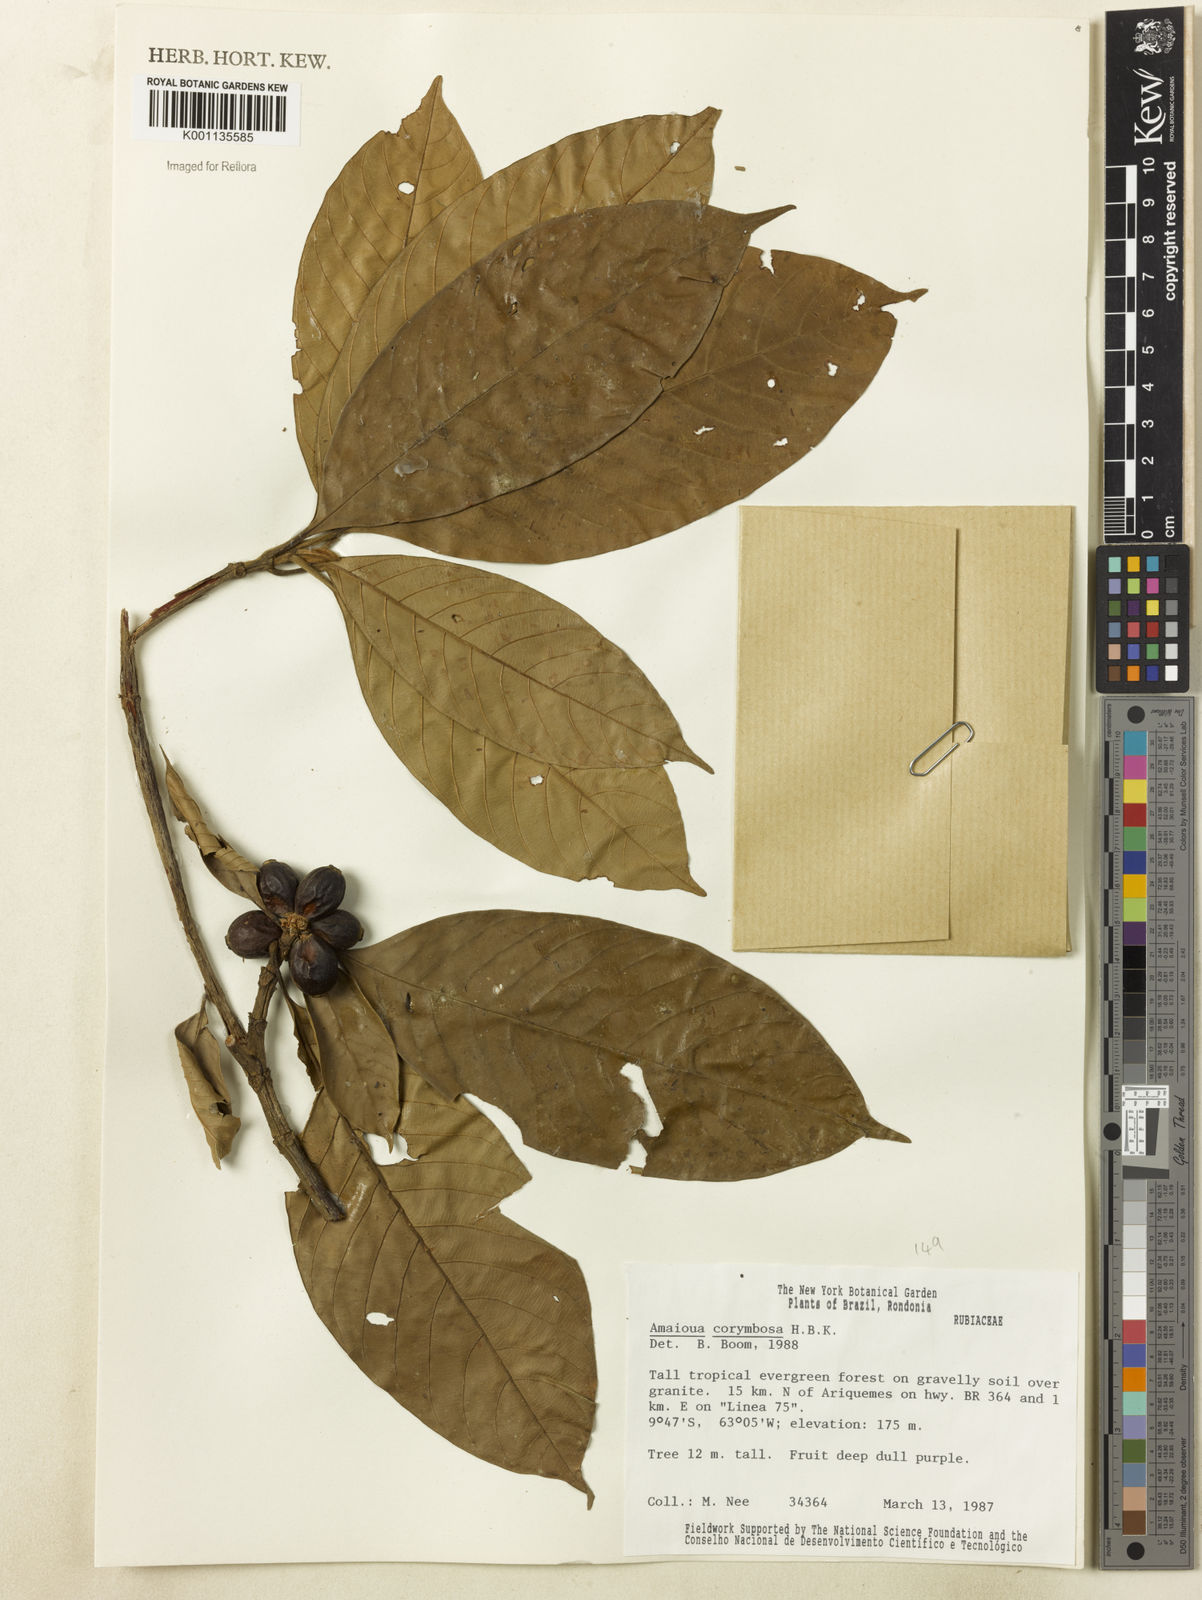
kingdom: Plantae
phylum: Tracheophyta
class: Magnoliopsida
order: Gentianales
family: Rubiaceae
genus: Amaioua
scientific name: Amaioua glomerulata
